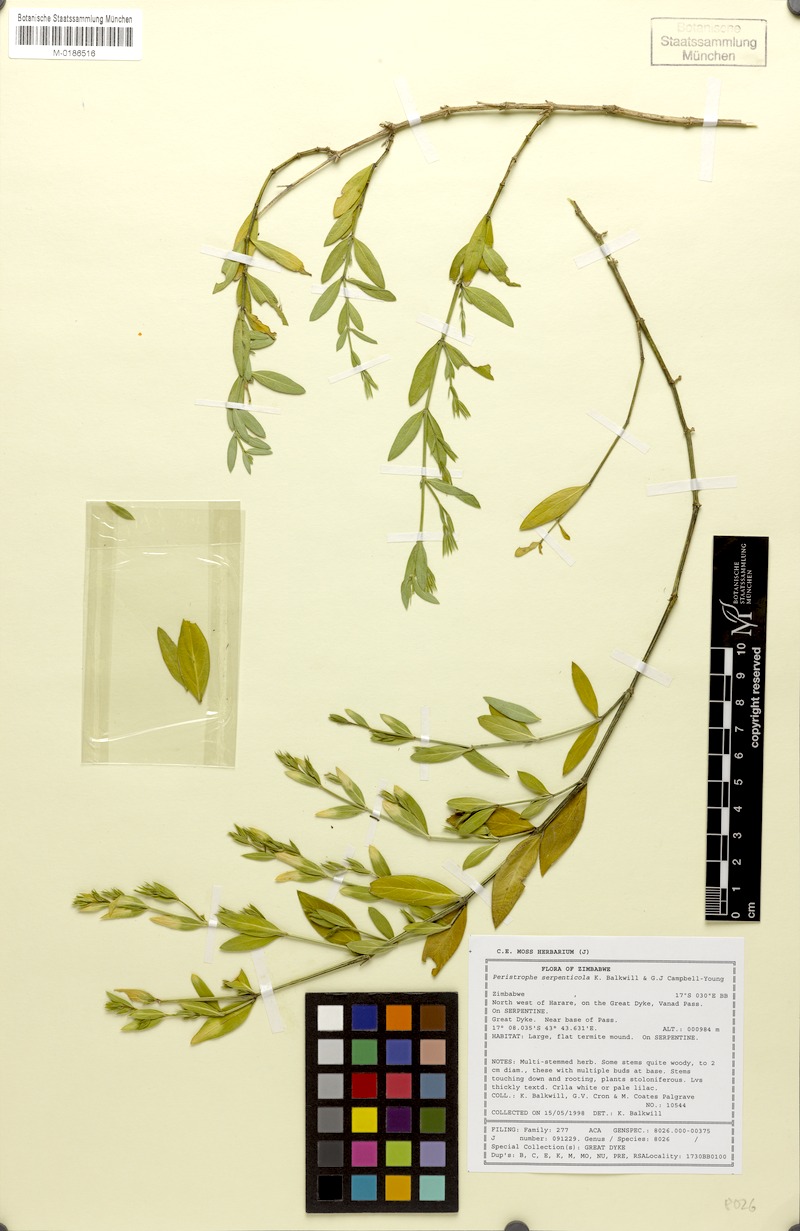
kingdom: Plantae
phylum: Tracheophyta
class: Magnoliopsida
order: Lamiales
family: Acanthaceae
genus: Dicliptera
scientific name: Dicliptera serpenticola
